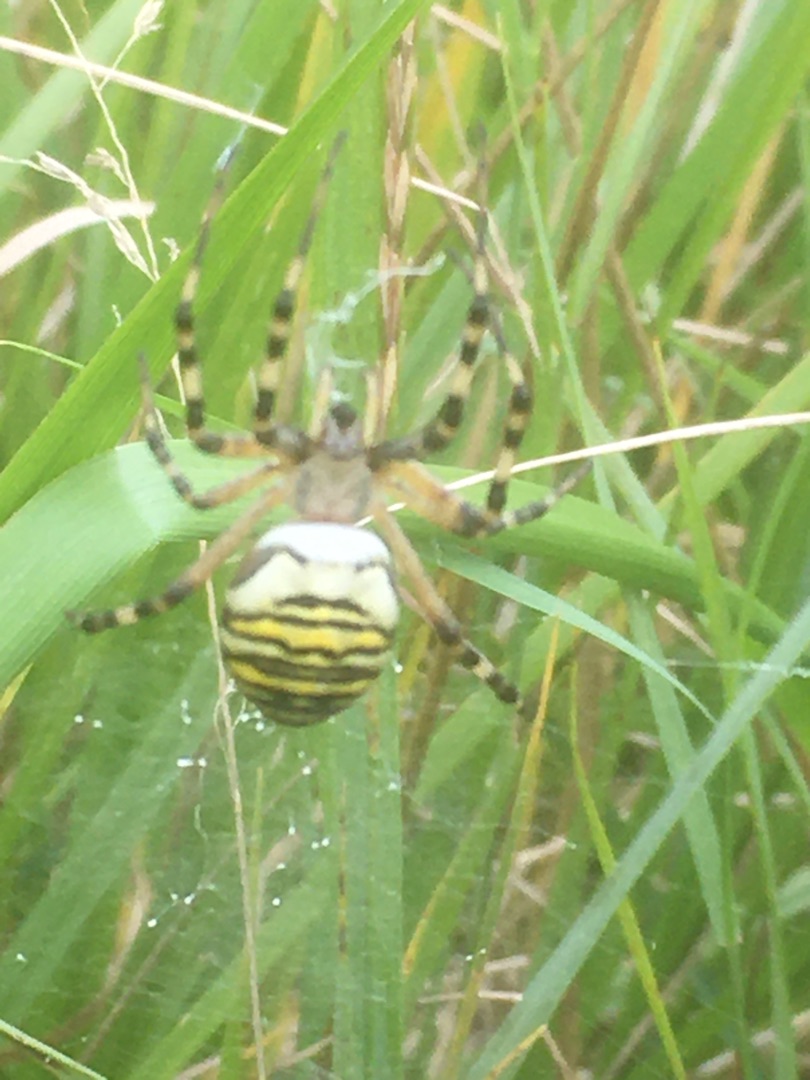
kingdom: Animalia
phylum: Arthropoda
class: Arachnida
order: Araneae
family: Araneidae
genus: Argiope
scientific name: Argiope bruennichi
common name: Hvepseedderkop
